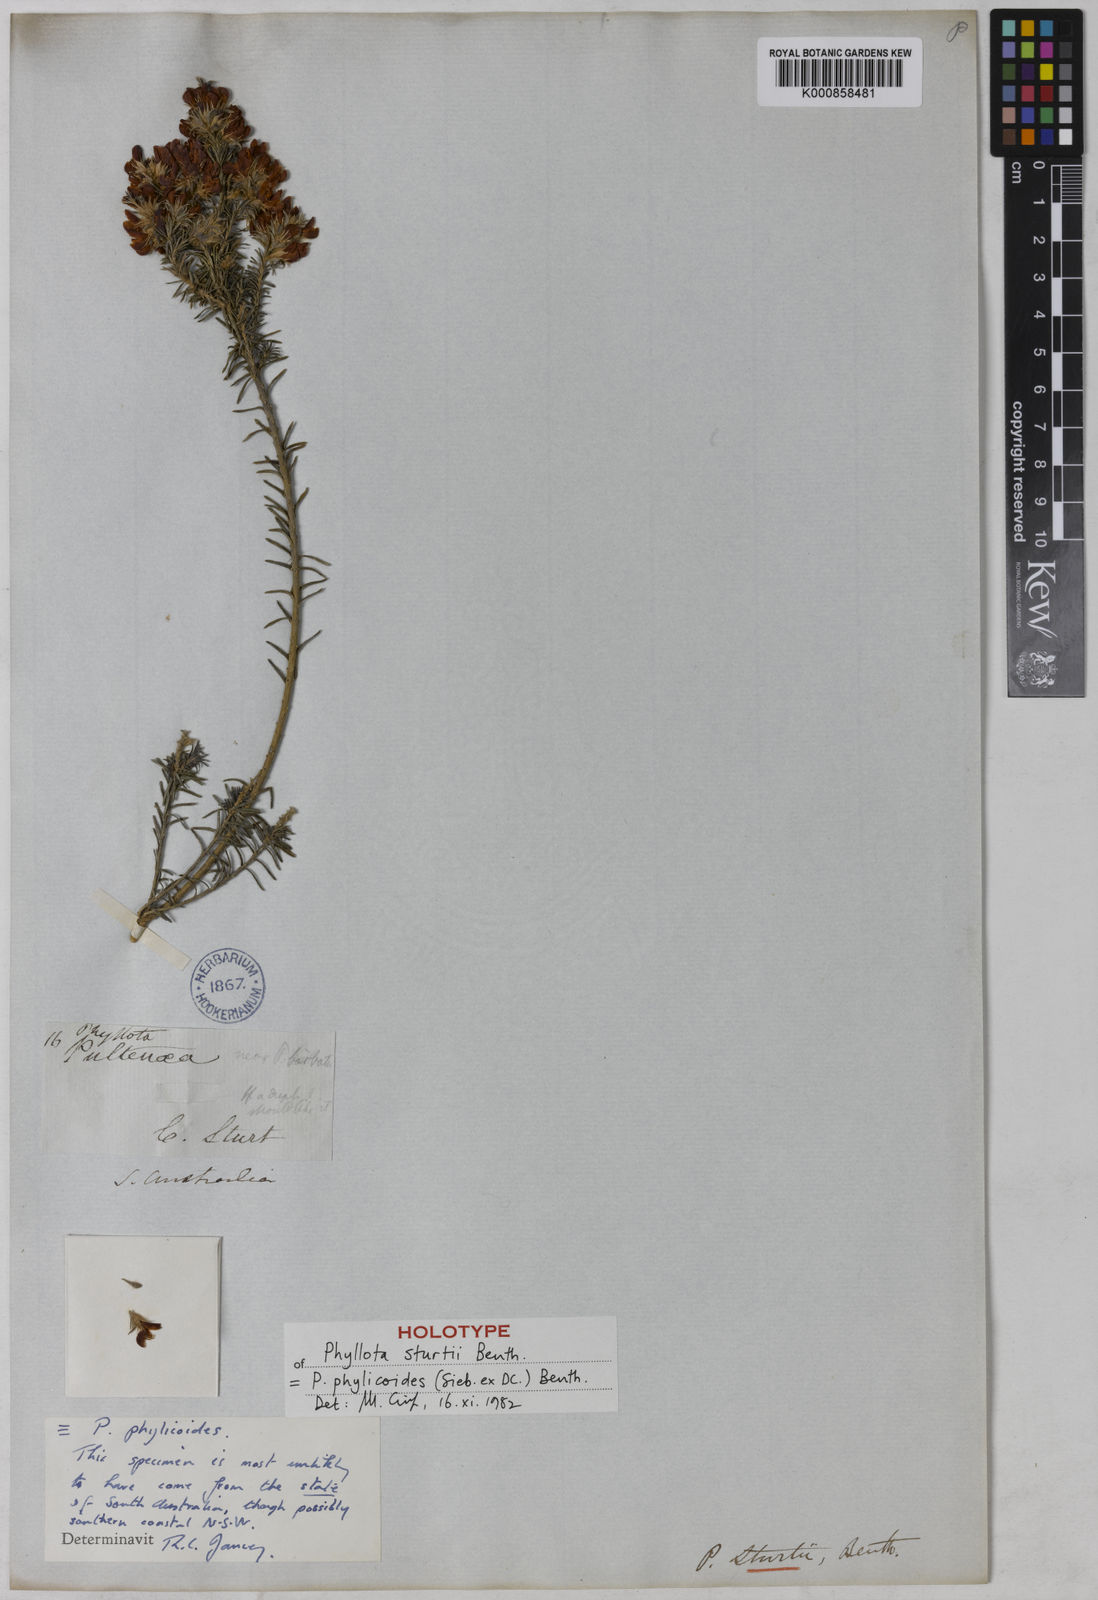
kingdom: Plantae
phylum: Tracheophyta
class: Magnoliopsida
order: Fabales
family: Fabaceae
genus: Phyllota
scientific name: Phyllota phylicoides
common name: Heath phyllota
